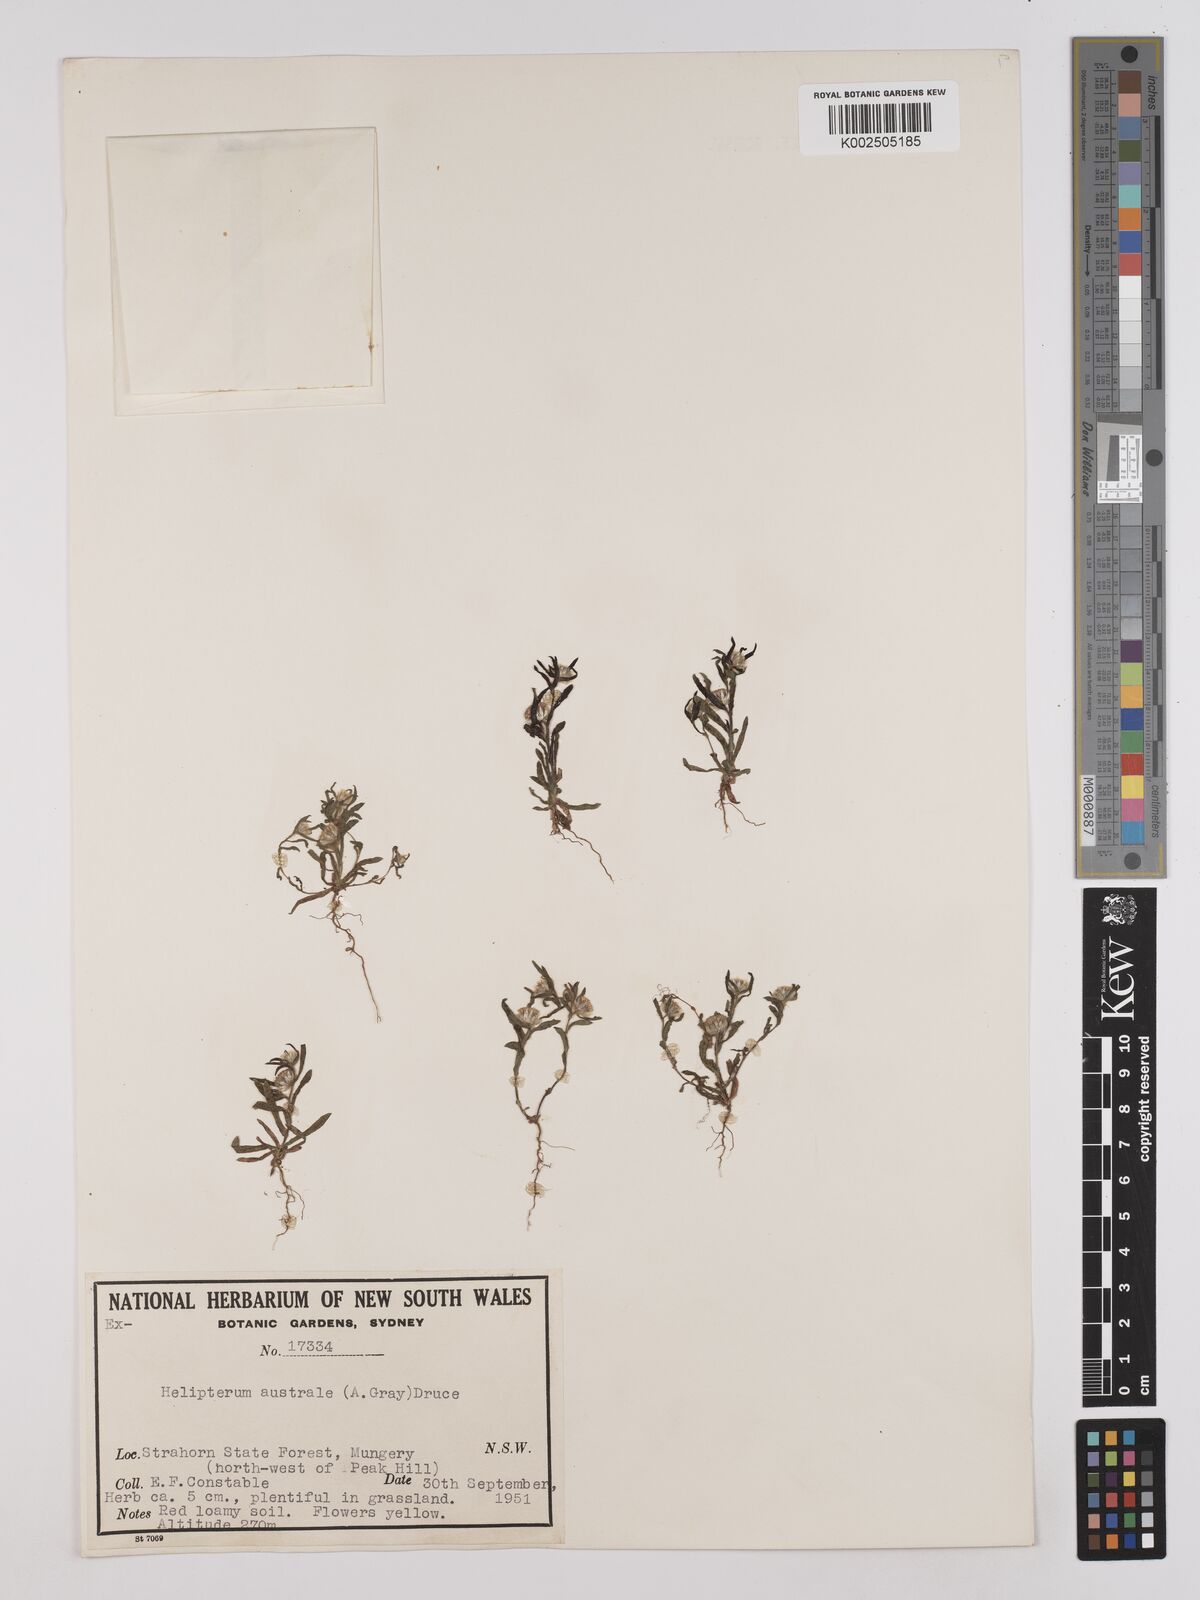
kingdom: Plantae
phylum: Tracheophyta
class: Magnoliopsida
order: Asterales
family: Asteraceae
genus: Triptilodiscus
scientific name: Triptilodiscus pygmaeus
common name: Common sunray
